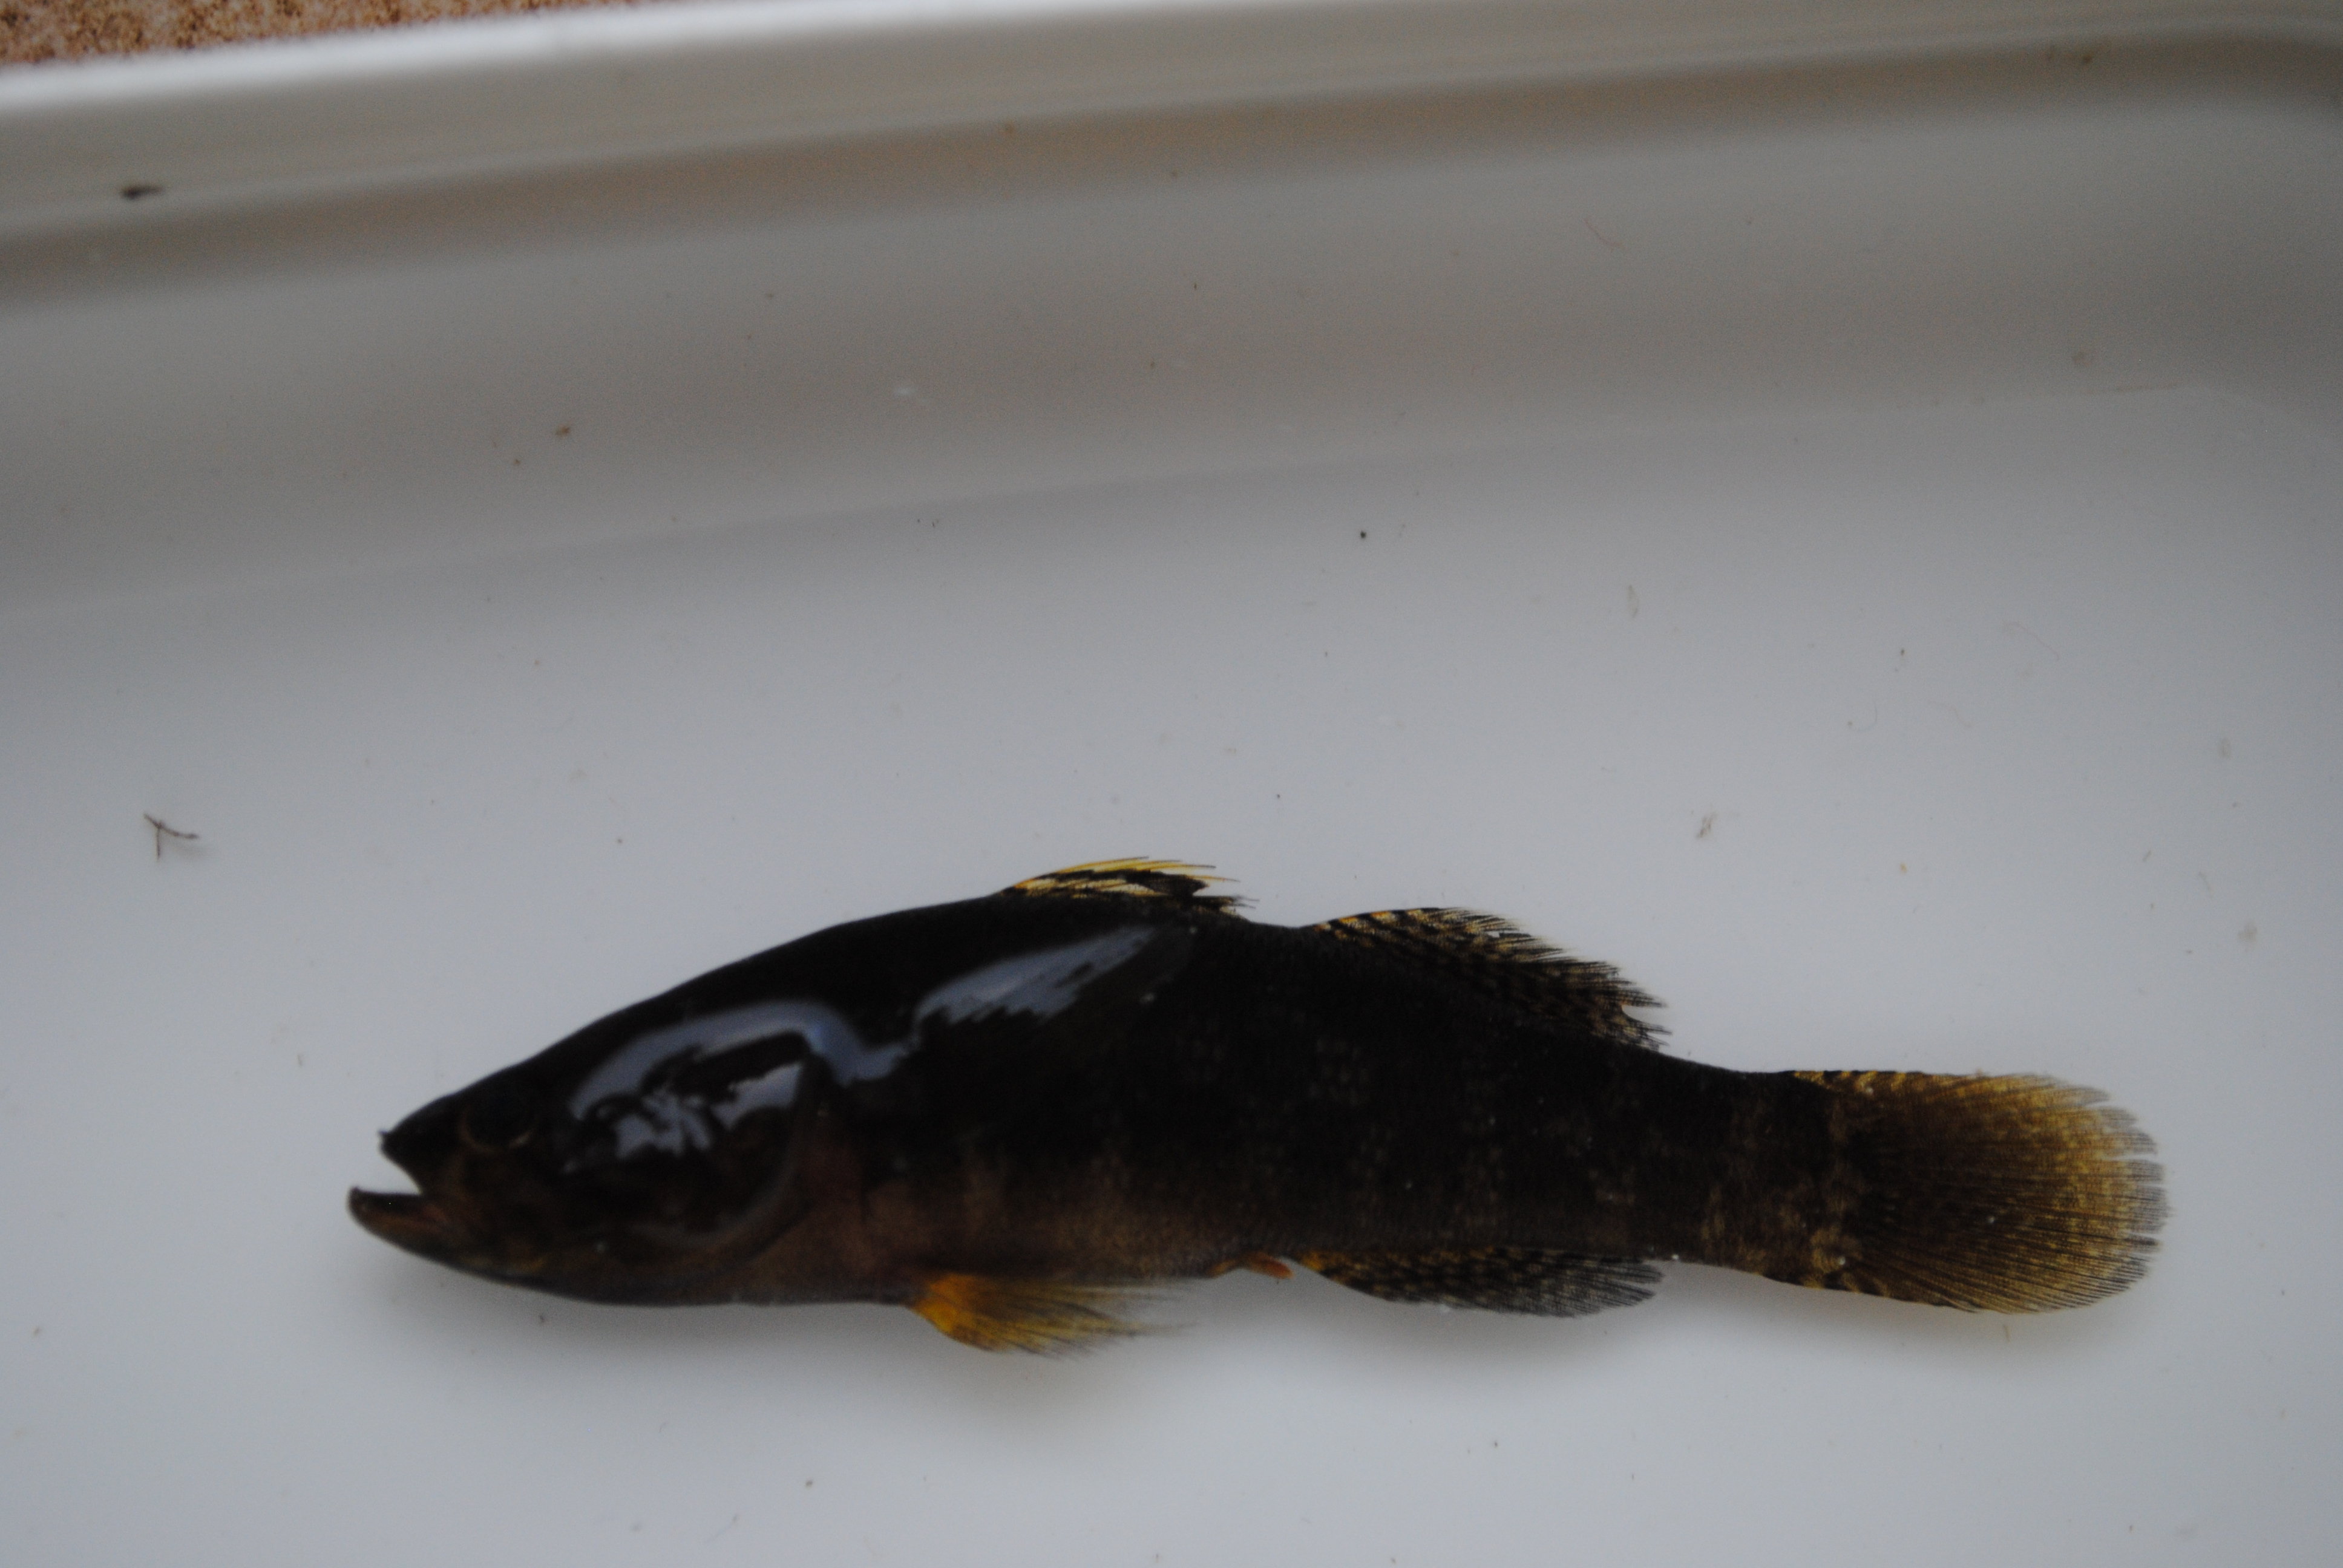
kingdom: Animalia
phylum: Chordata
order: Perciformes
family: Eleotridae
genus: Ophiocara
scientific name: Ophiocara porocephala
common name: Spangled gudgeon
